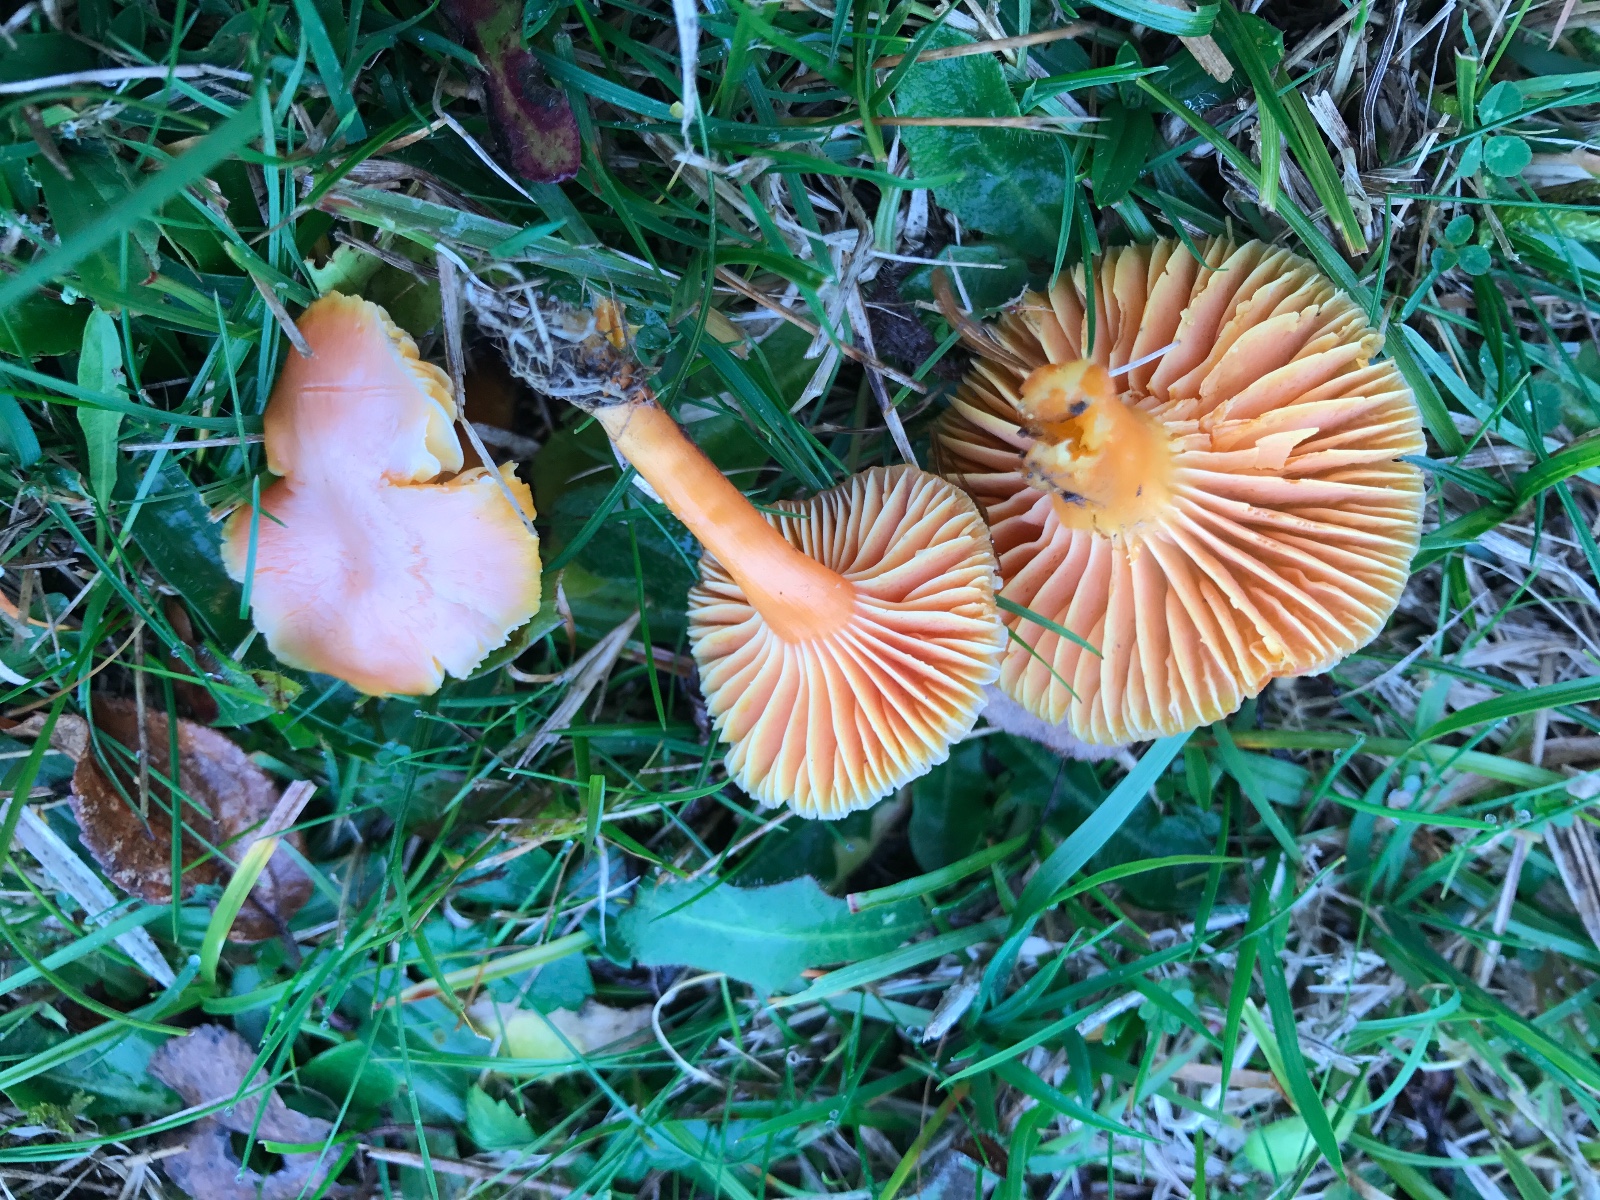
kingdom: Fungi
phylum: Basidiomycota
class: Agaricomycetes
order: Agaricales
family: Hygrophoraceae
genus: Hygrocybe
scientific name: Hygrocybe reidii
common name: honning-vokshat
